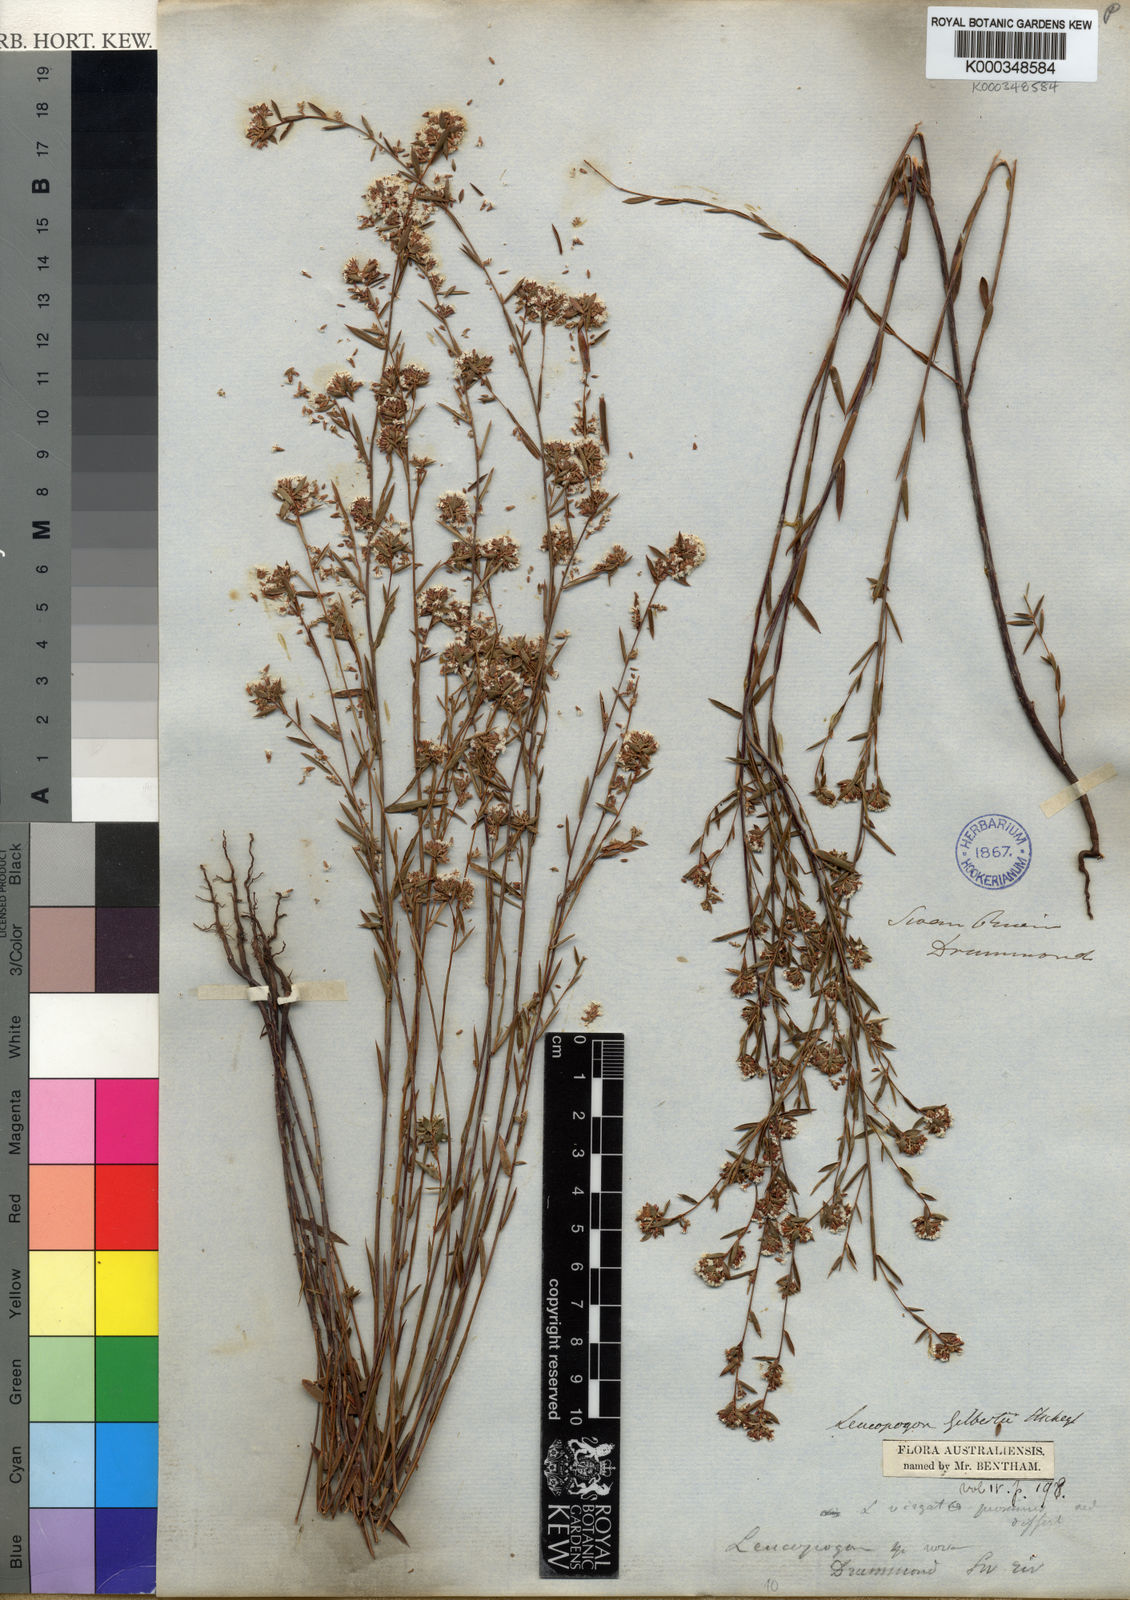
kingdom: Plantae
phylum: Tracheophyta
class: Magnoliopsida
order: Ericales
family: Ericaceae
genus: Leucopogon
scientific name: Leucopogon gilbertii
